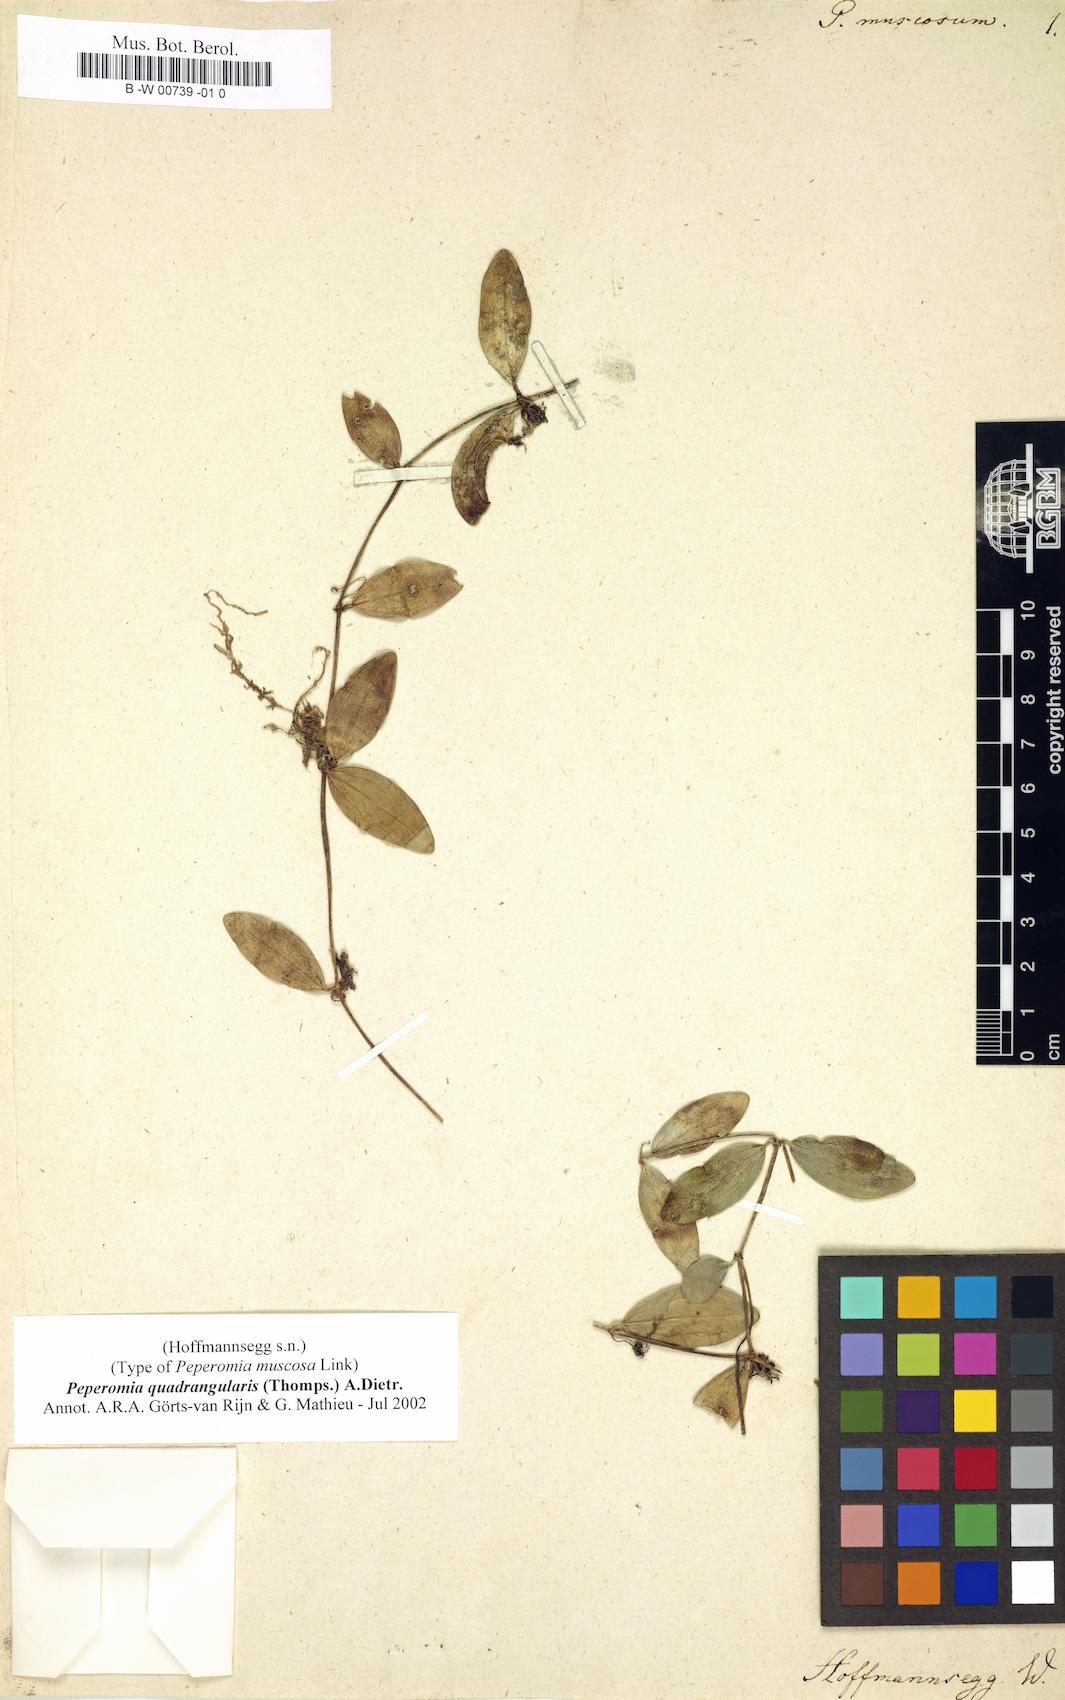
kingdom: Plantae
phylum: Tracheophyta
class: Magnoliopsida
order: Piperales
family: Piperaceae
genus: Peperomia
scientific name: Peperomia quadrangularis
